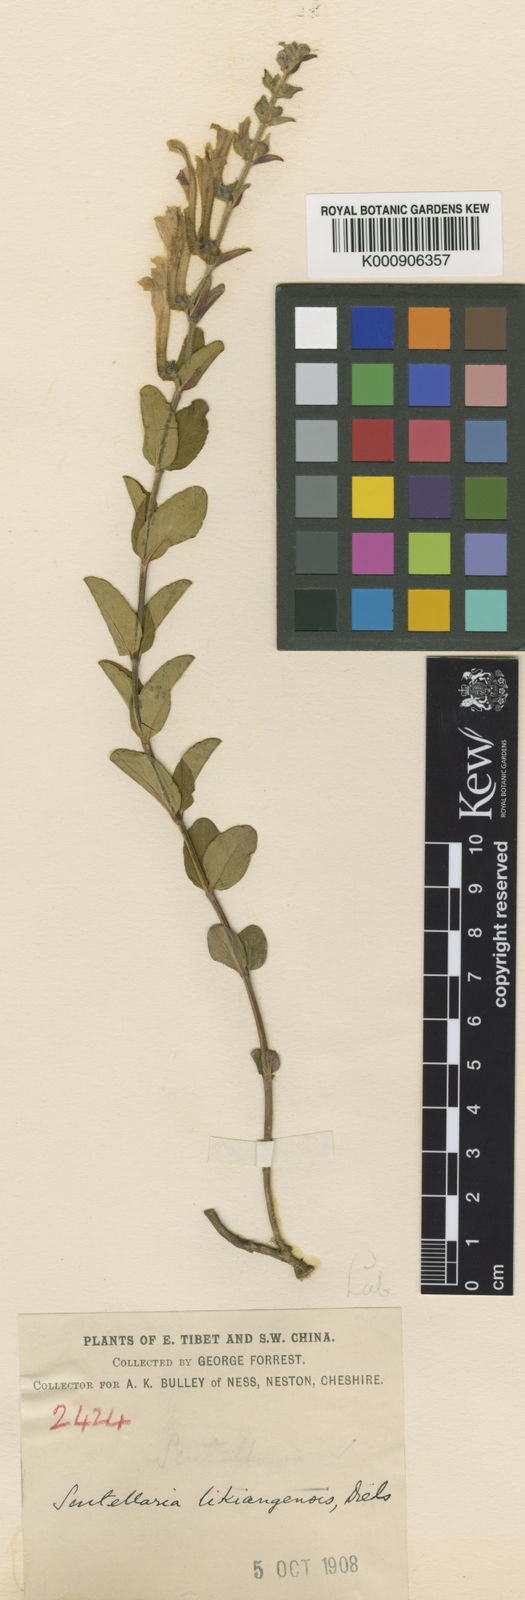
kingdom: Plantae
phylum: Tracheophyta
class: Magnoliopsida
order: Lamiales
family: Lamiaceae
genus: Scutellaria
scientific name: Scutellaria likiangensis
